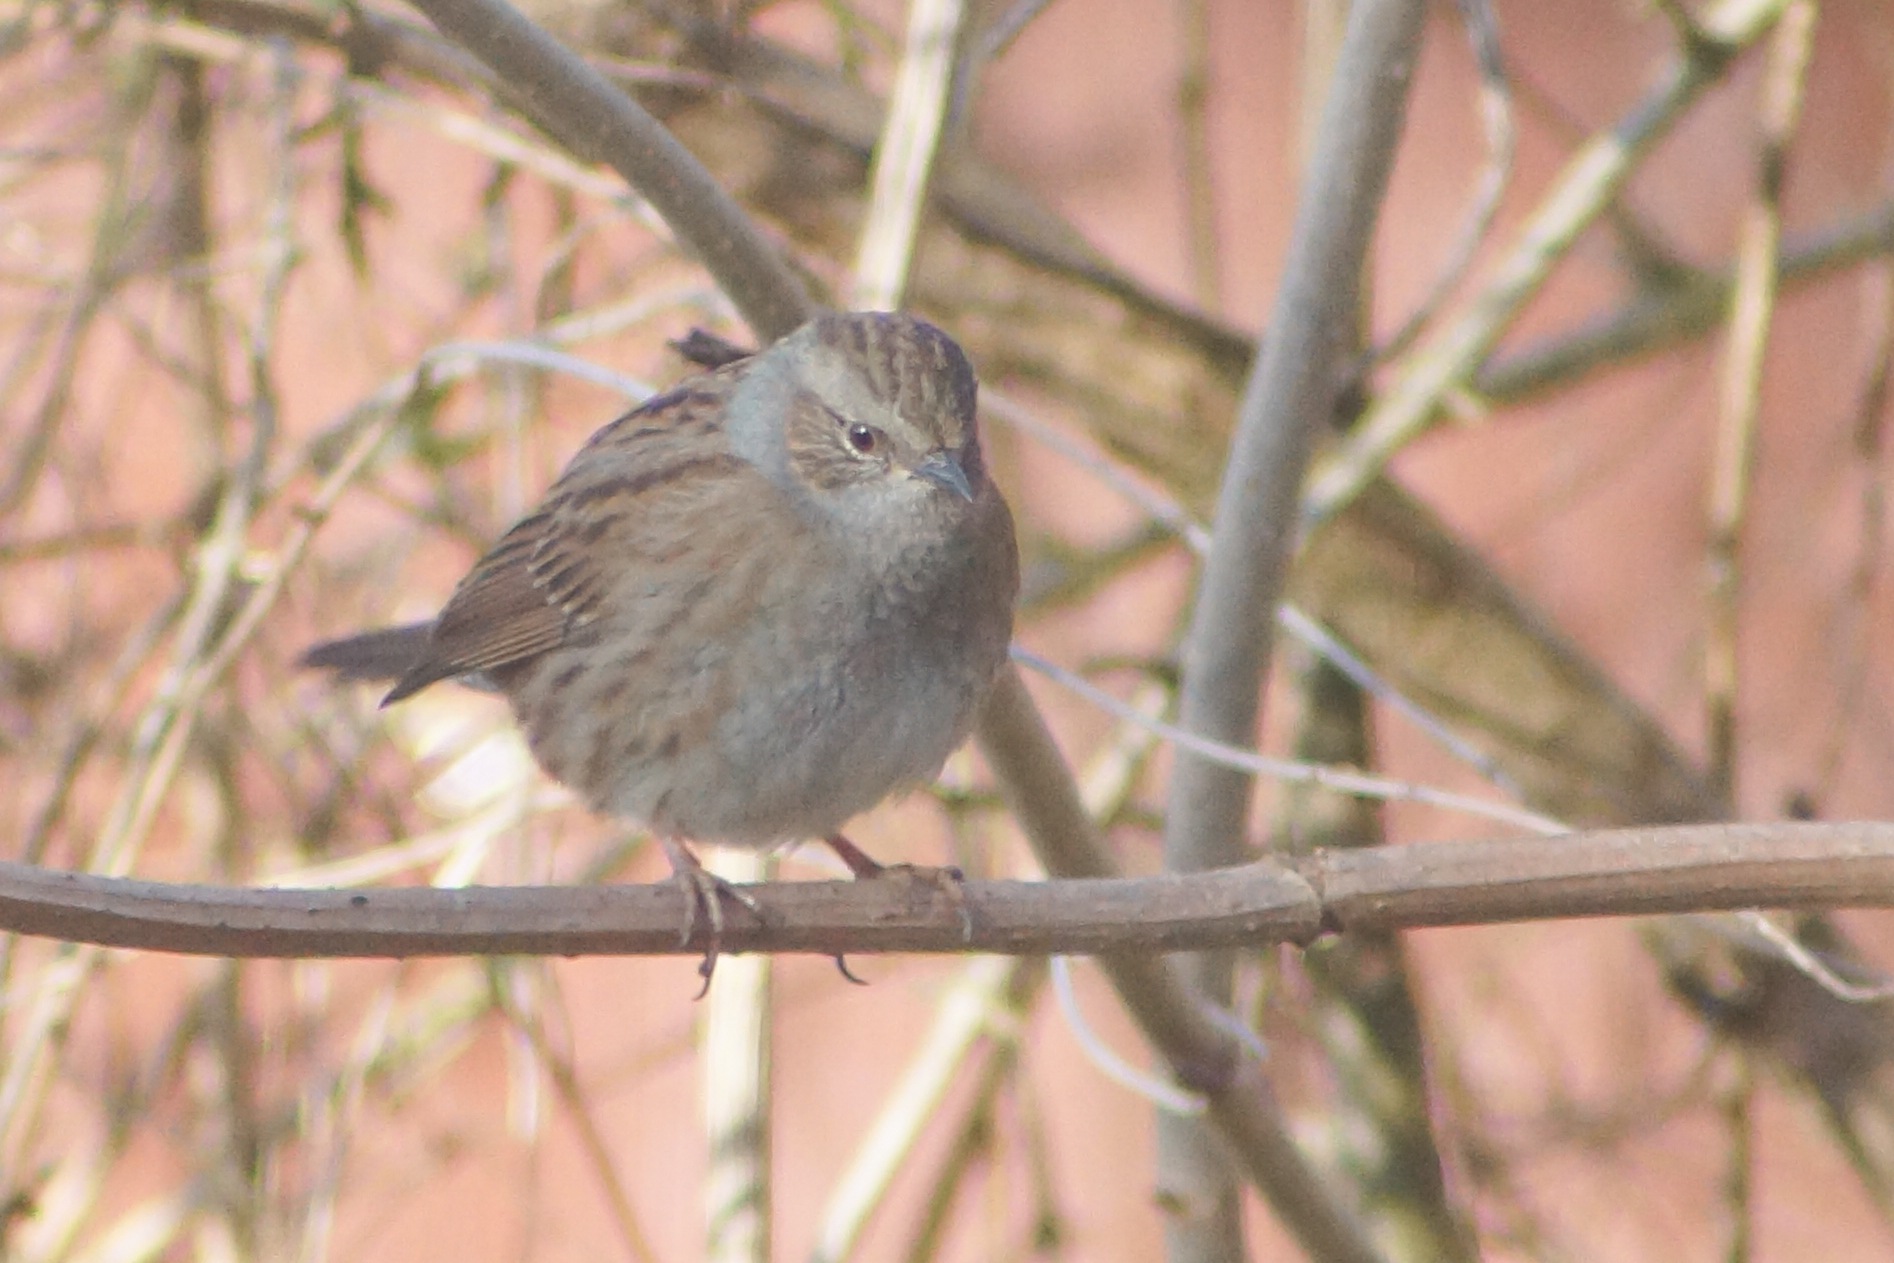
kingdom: Animalia
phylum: Chordata
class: Aves
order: Passeriformes
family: Prunellidae
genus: Prunella
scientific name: Prunella modularis
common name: Jernspurv
